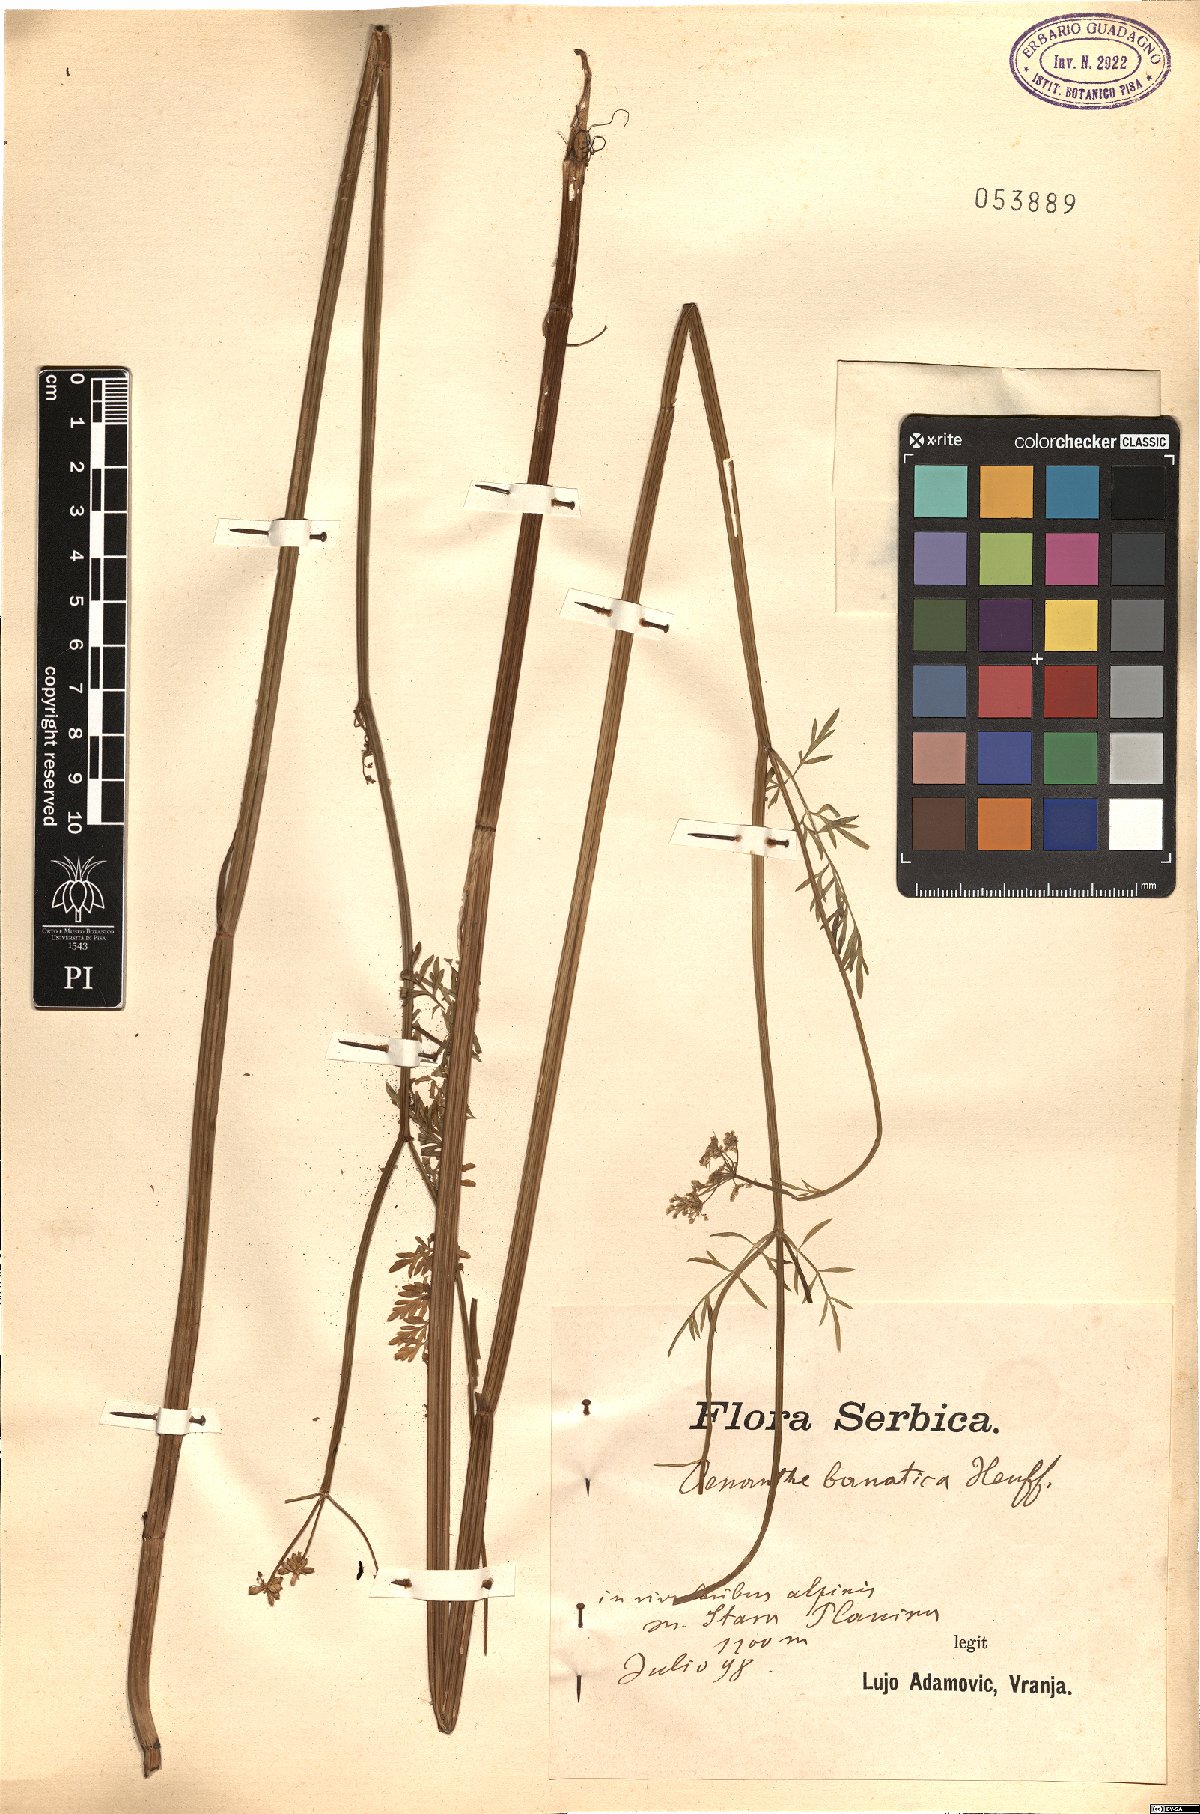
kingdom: Plantae
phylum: Tracheophyta
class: Magnoliopsida
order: Apiales
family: Apiaceae
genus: Oenanthe
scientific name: Oenanthe banatica
